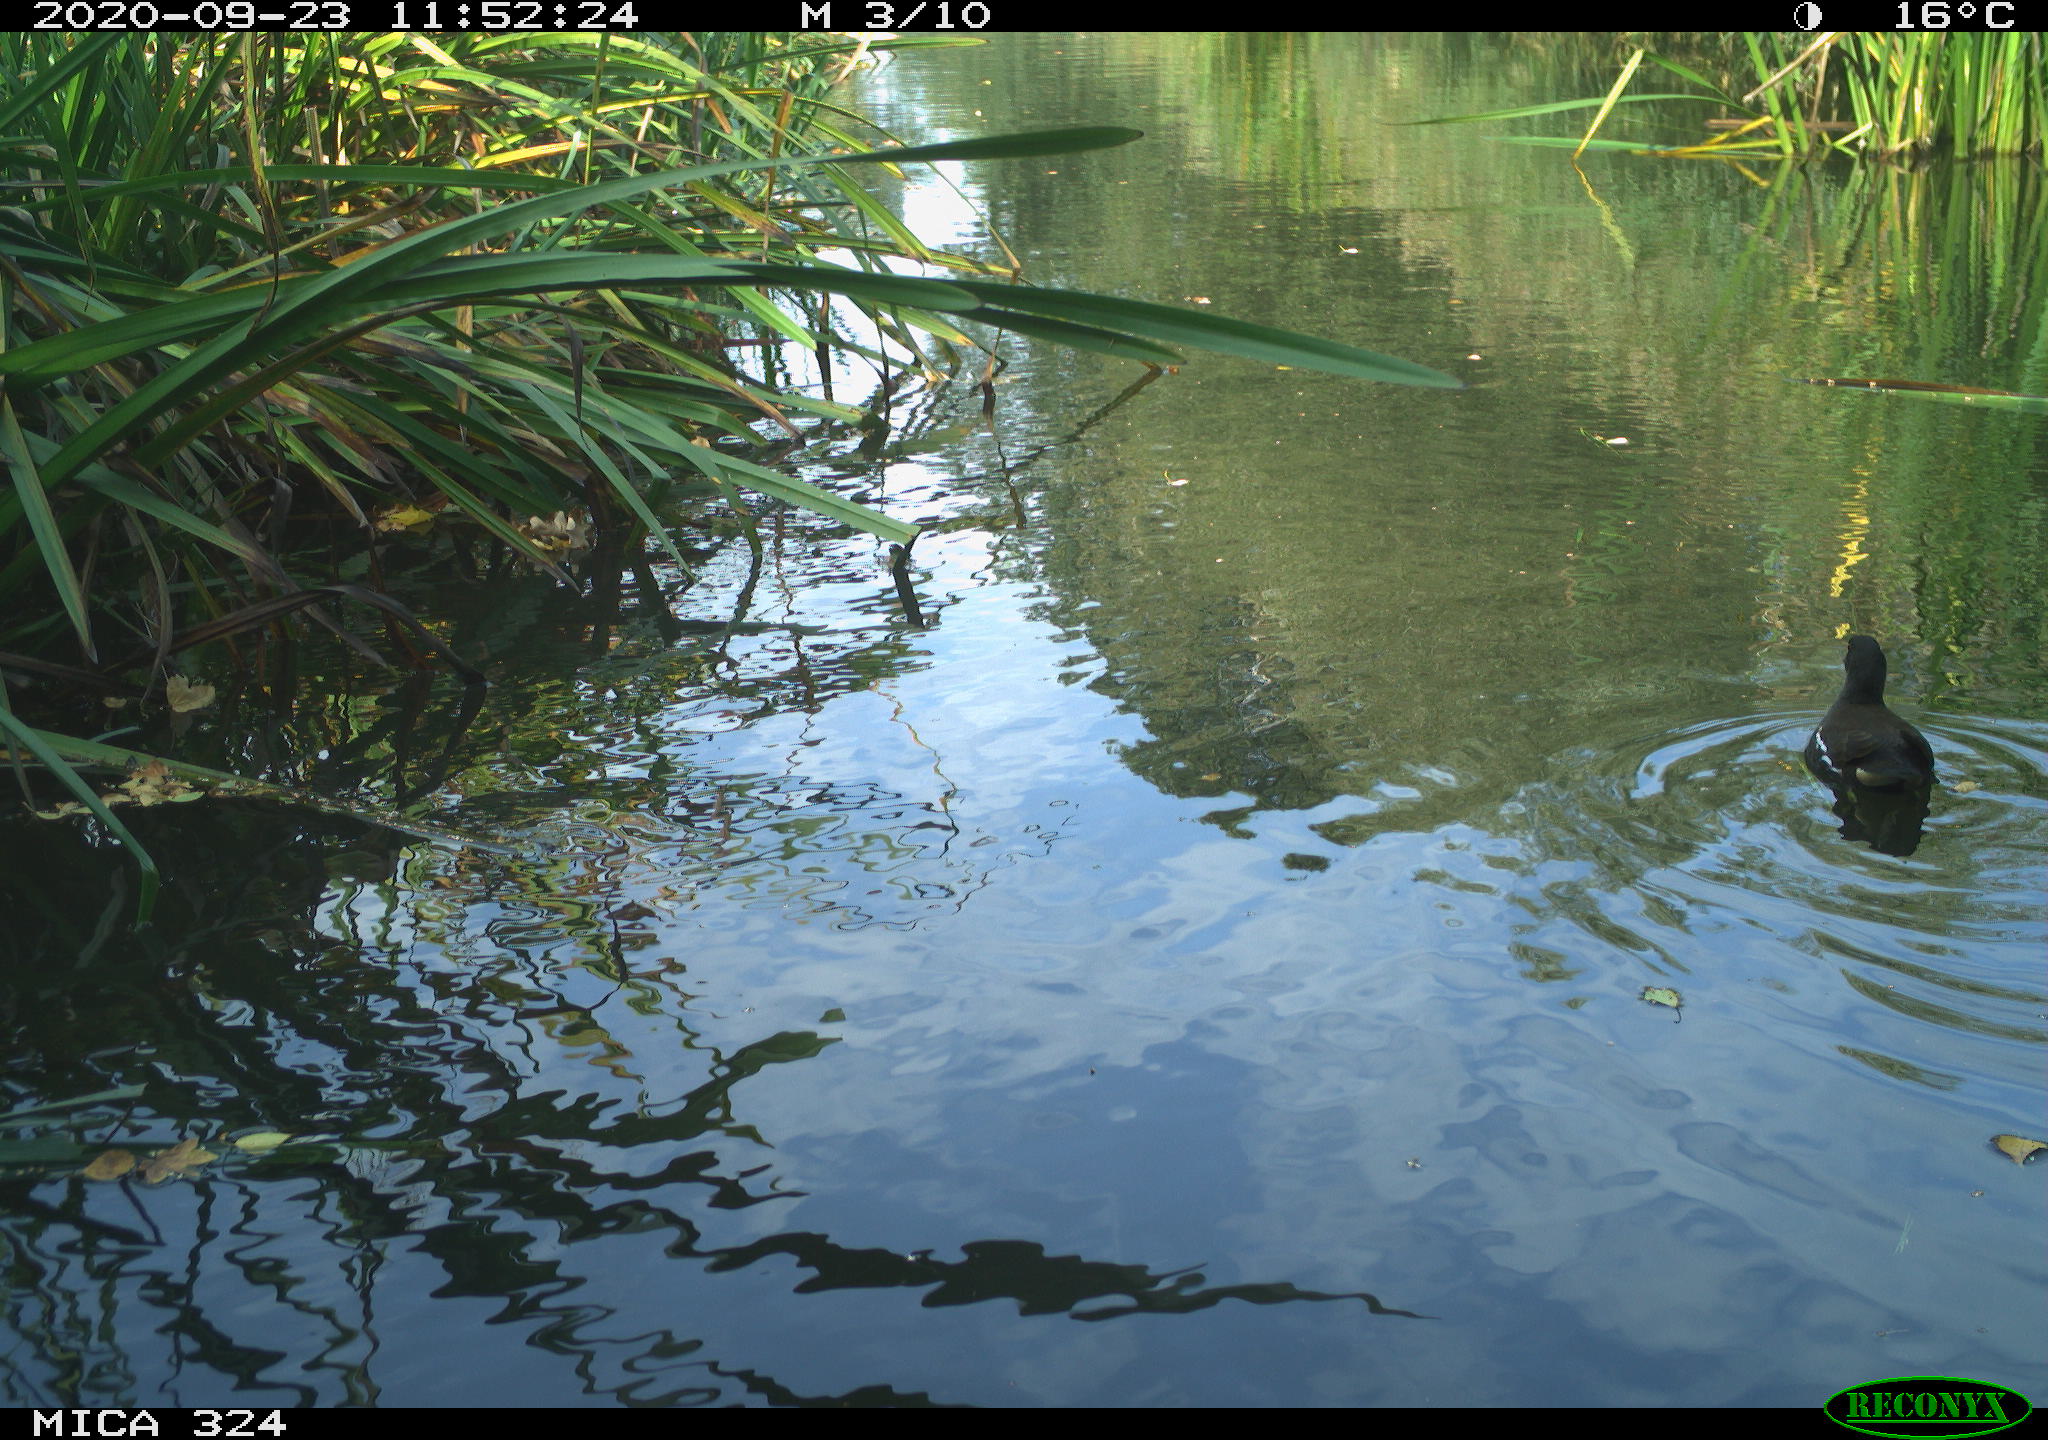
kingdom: Animalia
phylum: Chordata
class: Aves
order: Gruiformes
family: Rallidae
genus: Gallinula
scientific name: Gallinula chloropus
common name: Common moorhen
